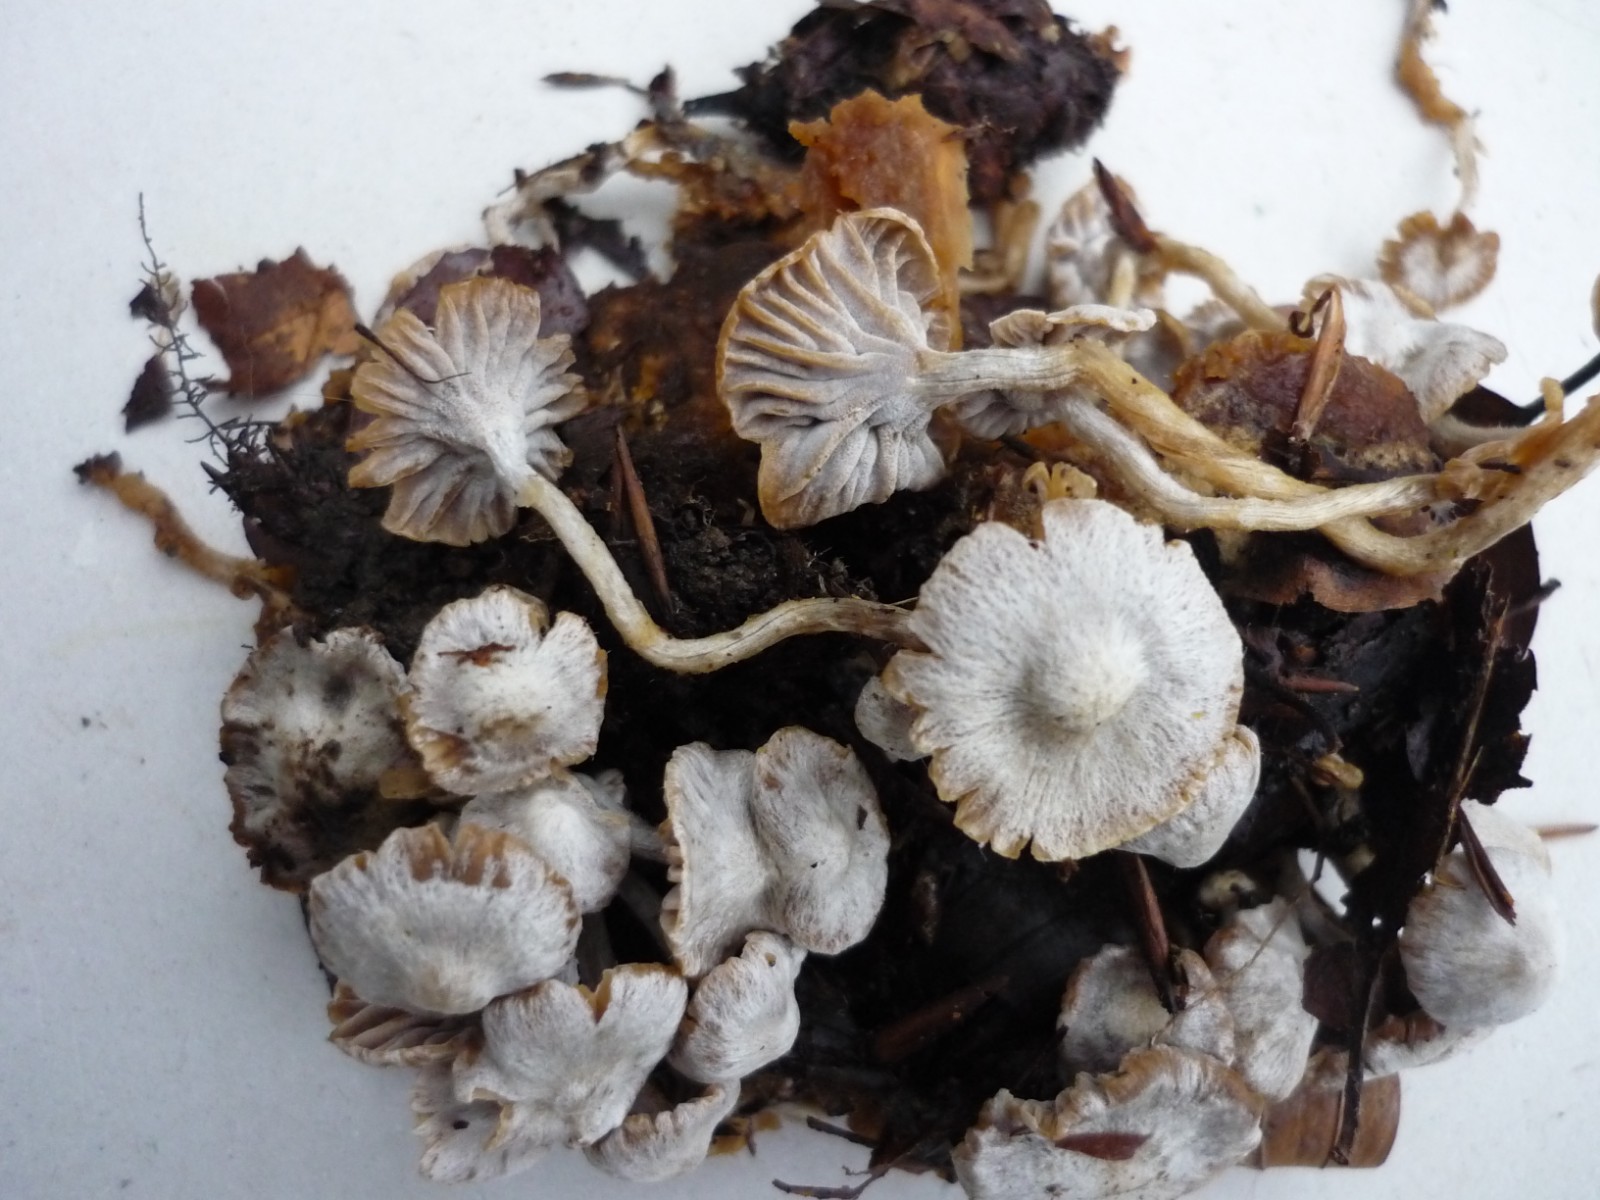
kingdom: Fungi
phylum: Basidiomycota
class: Agaricomycetes
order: Agaricales
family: Lyophyllaceae
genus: Asterophora
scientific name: Asterophora parasitica
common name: grå snyltehat
